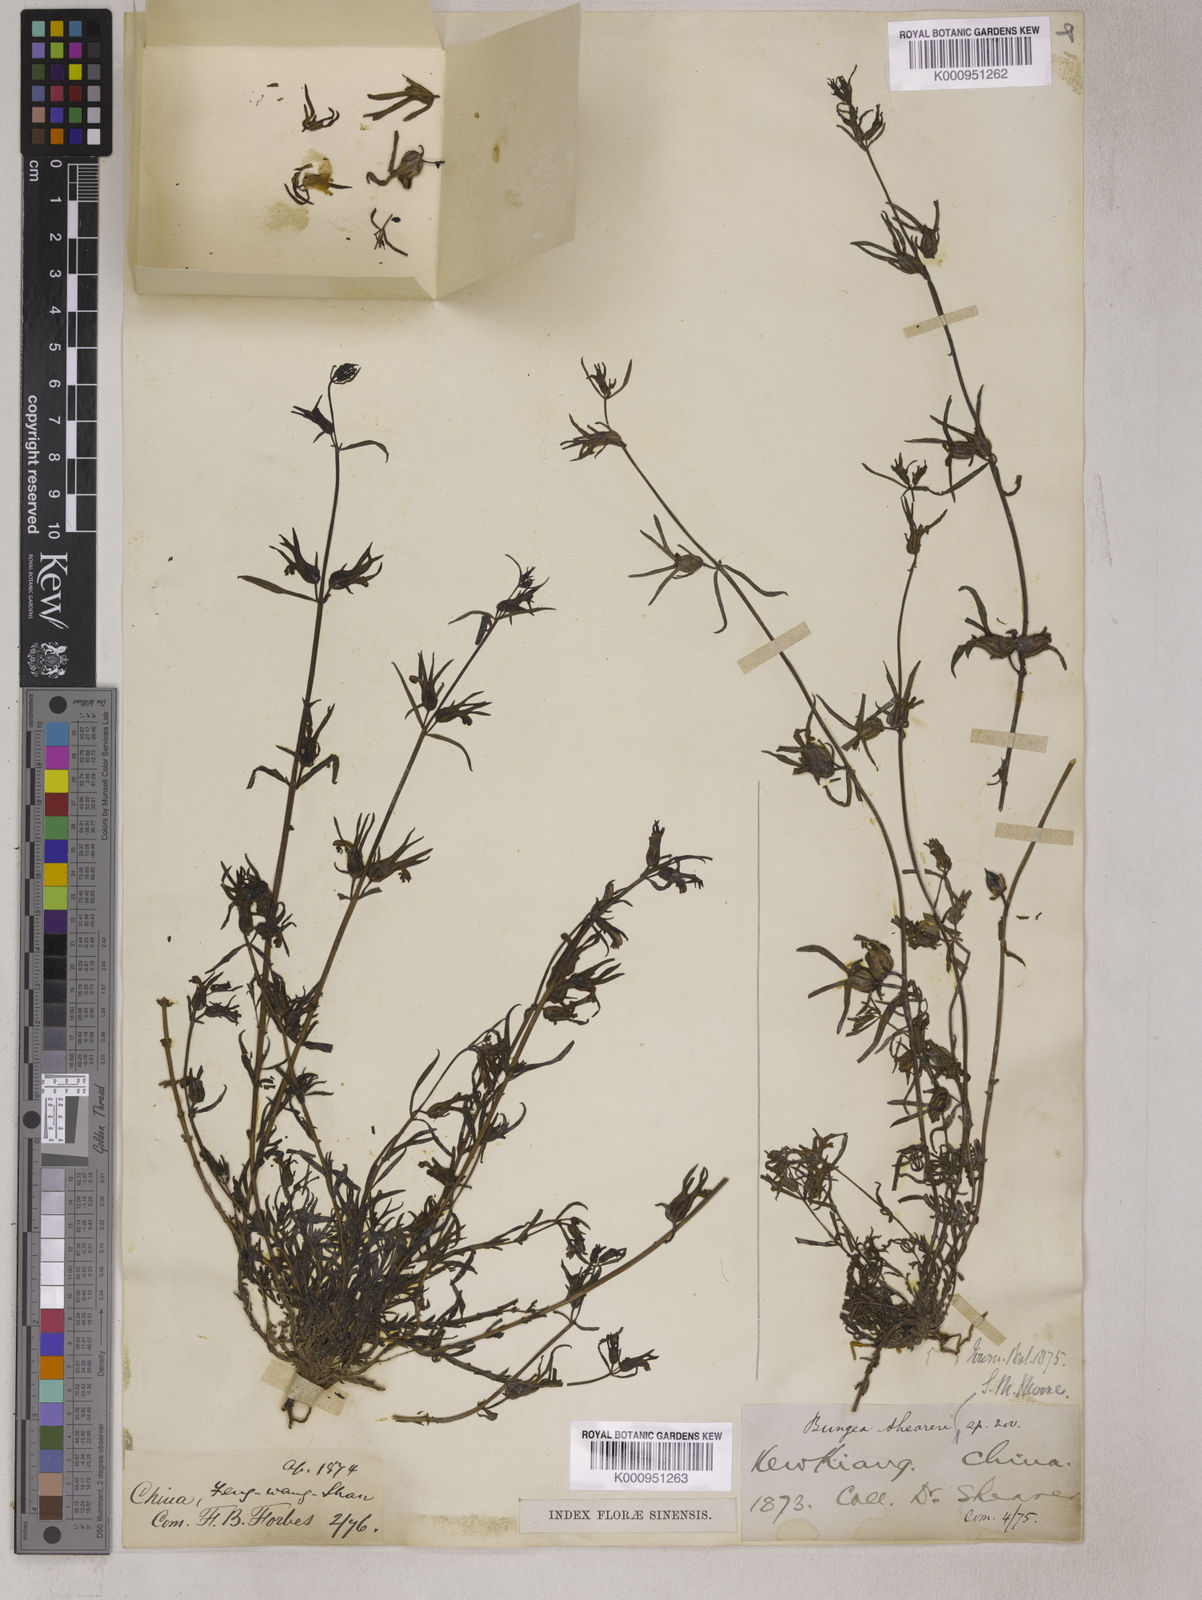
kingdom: Plantae
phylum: Tracheophyta
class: Magnoliopsida
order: Lamiales
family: Orobanchaceae
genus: Monochasma
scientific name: Monochasma sheareri
